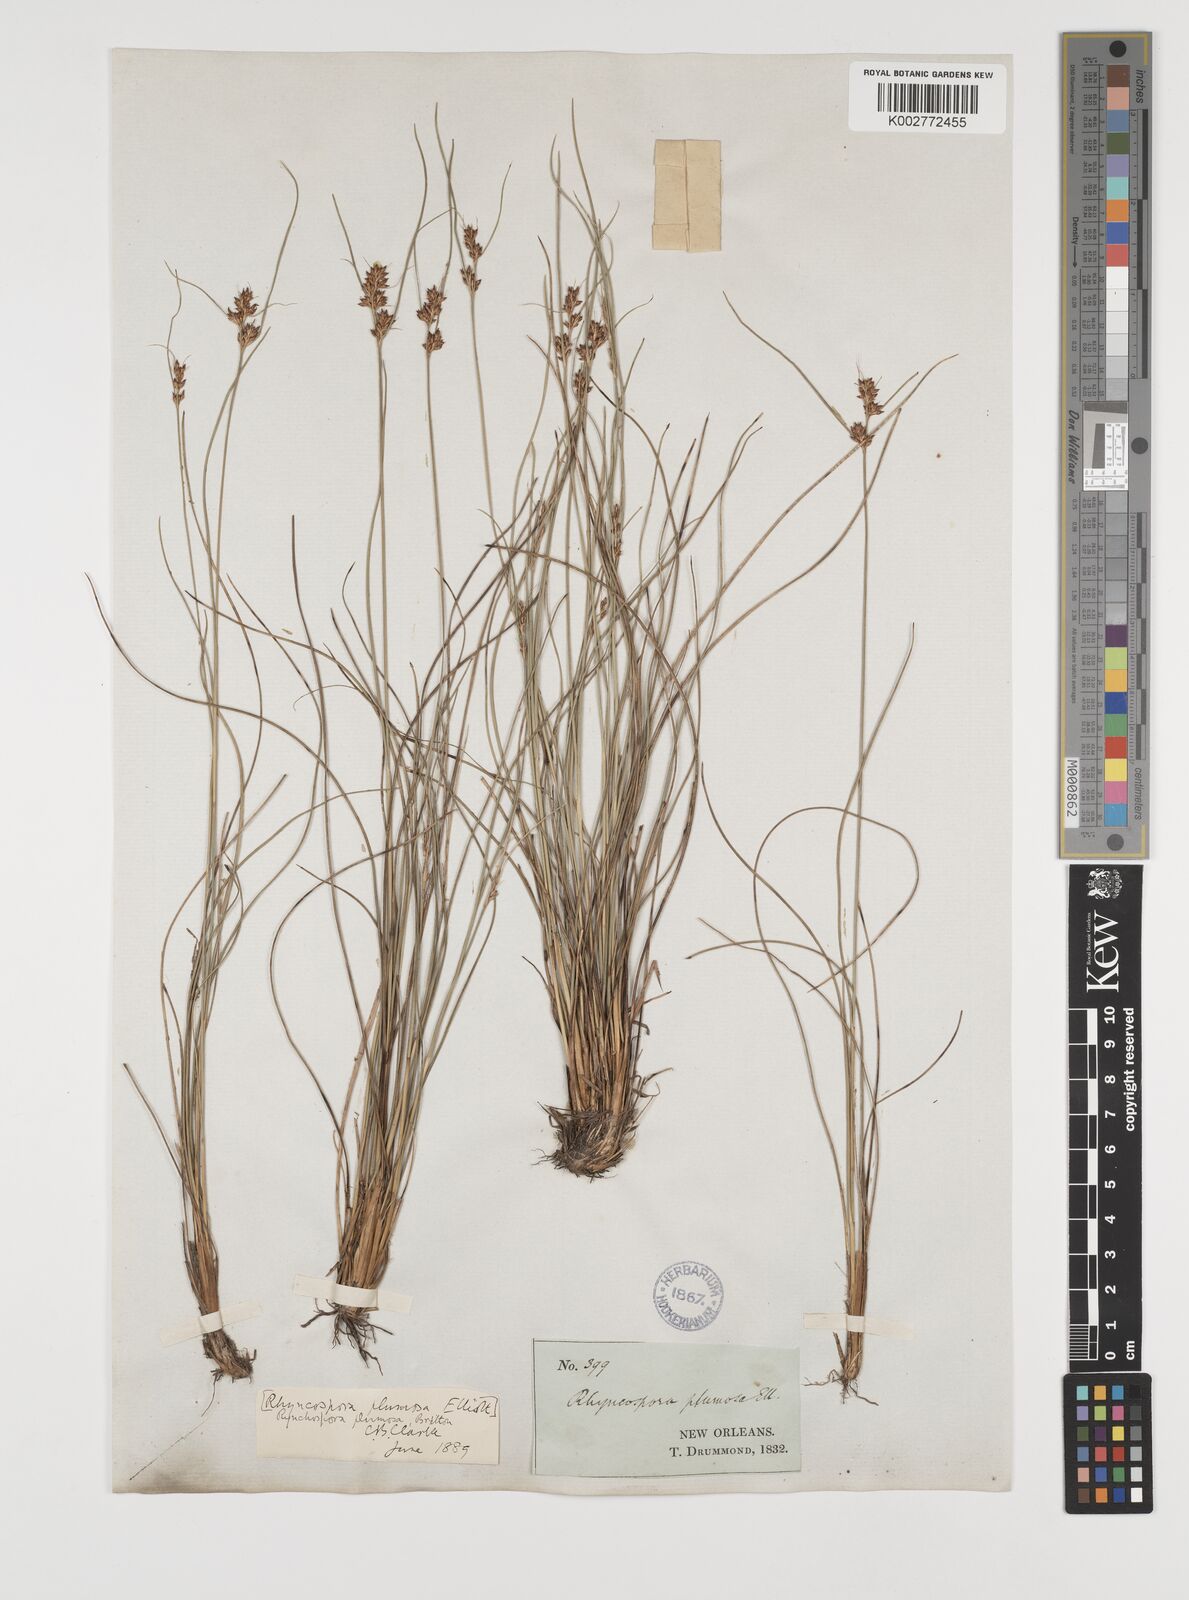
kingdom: Plantae
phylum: Tracheophyta
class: Liliopsida
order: Poales
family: Cyperaceae
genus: Rhynchospora
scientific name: Rhynchospora plumosa
